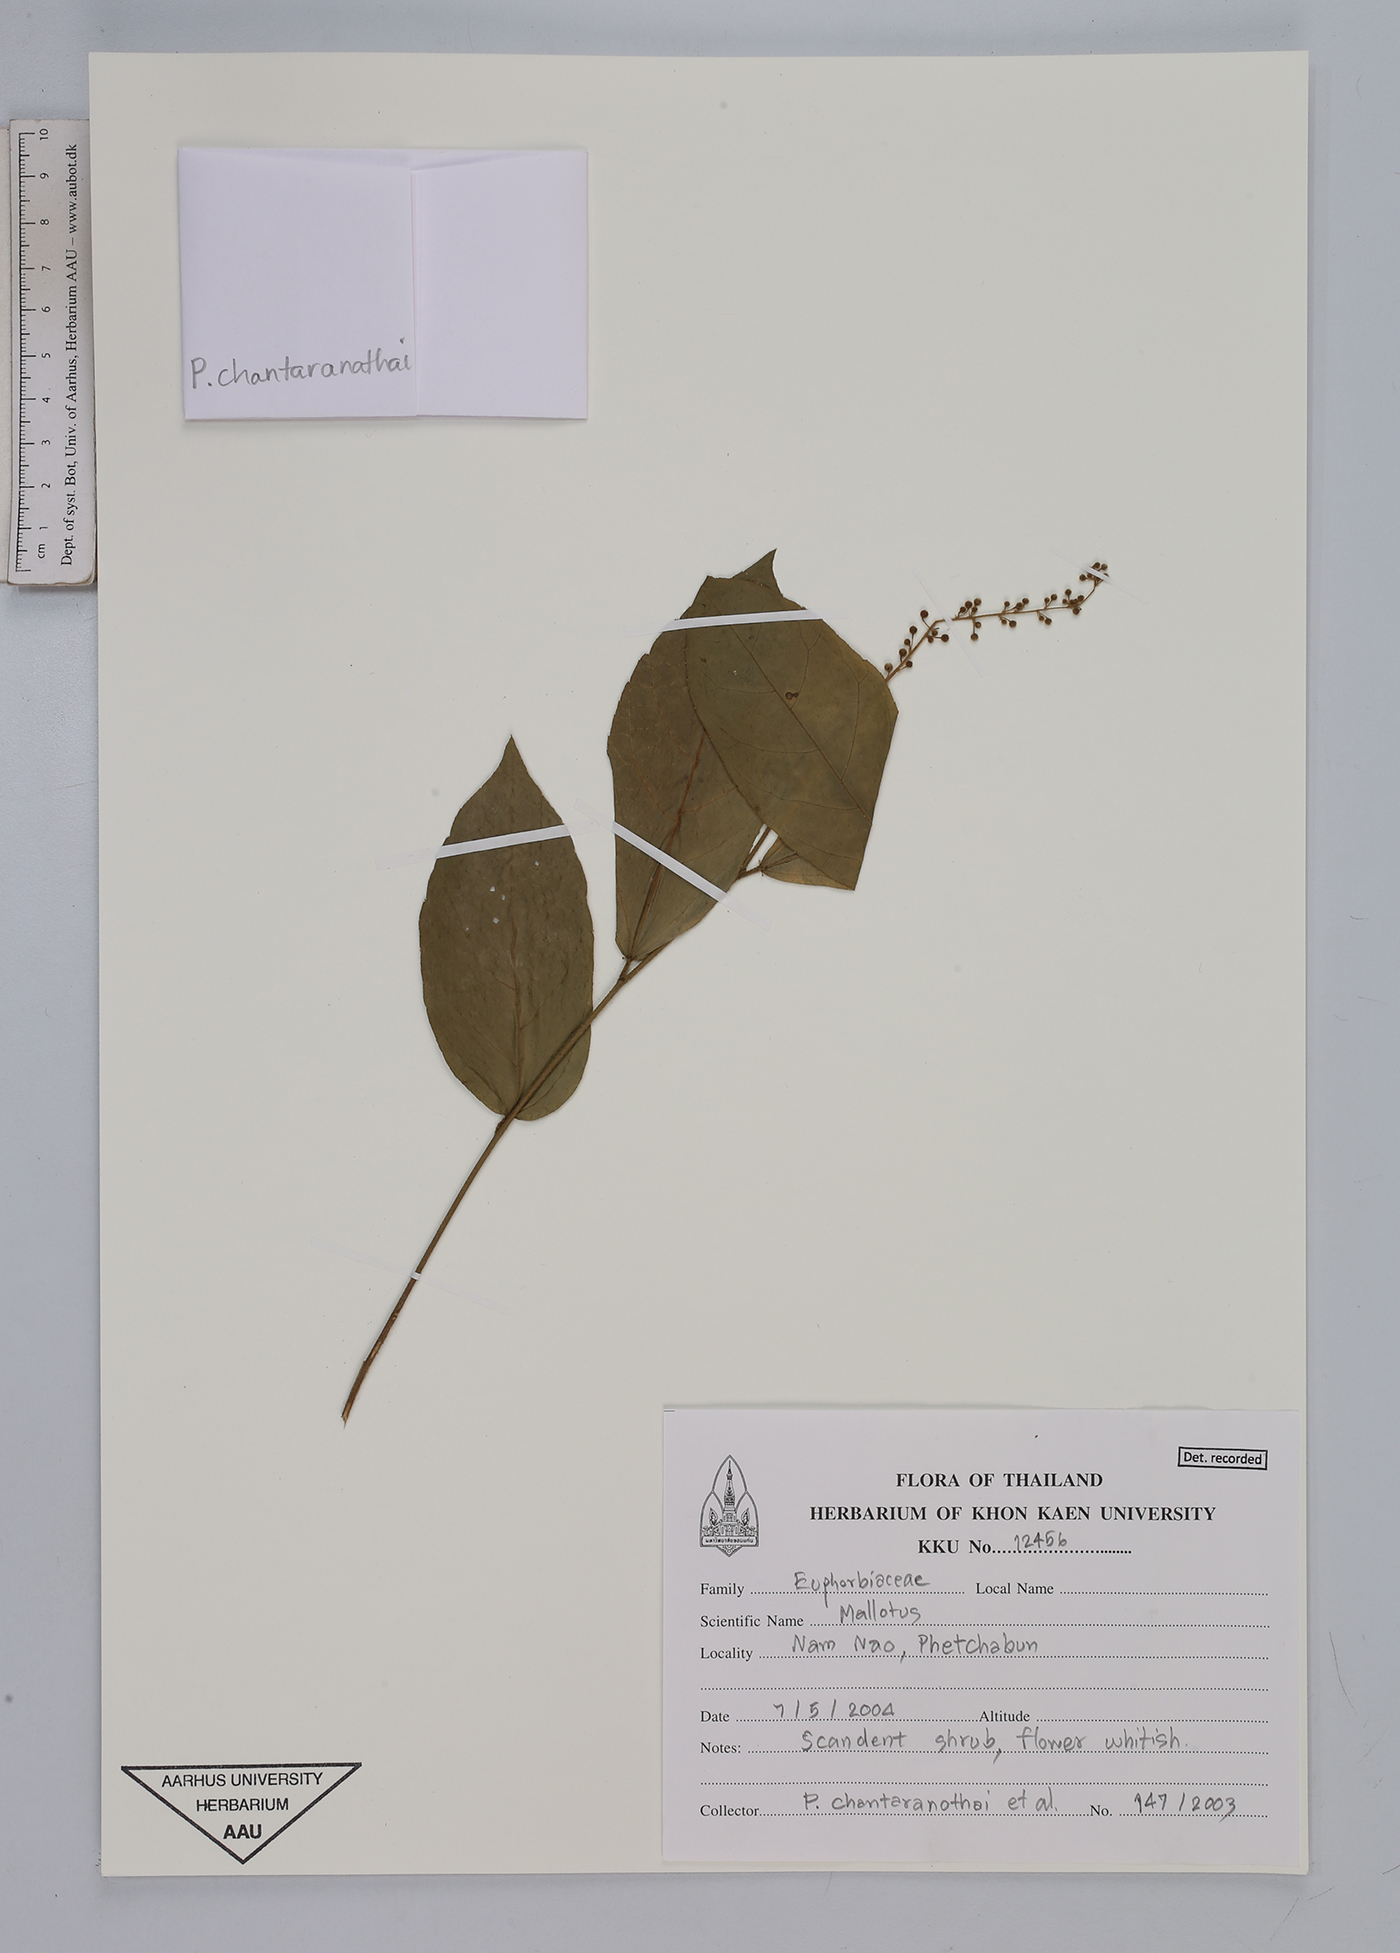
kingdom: Plantae
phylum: Tracheophyta
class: Magnoliopsida
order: Malpighiales
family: Euphorbiaceae
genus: Mallotus
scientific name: Mallotus
